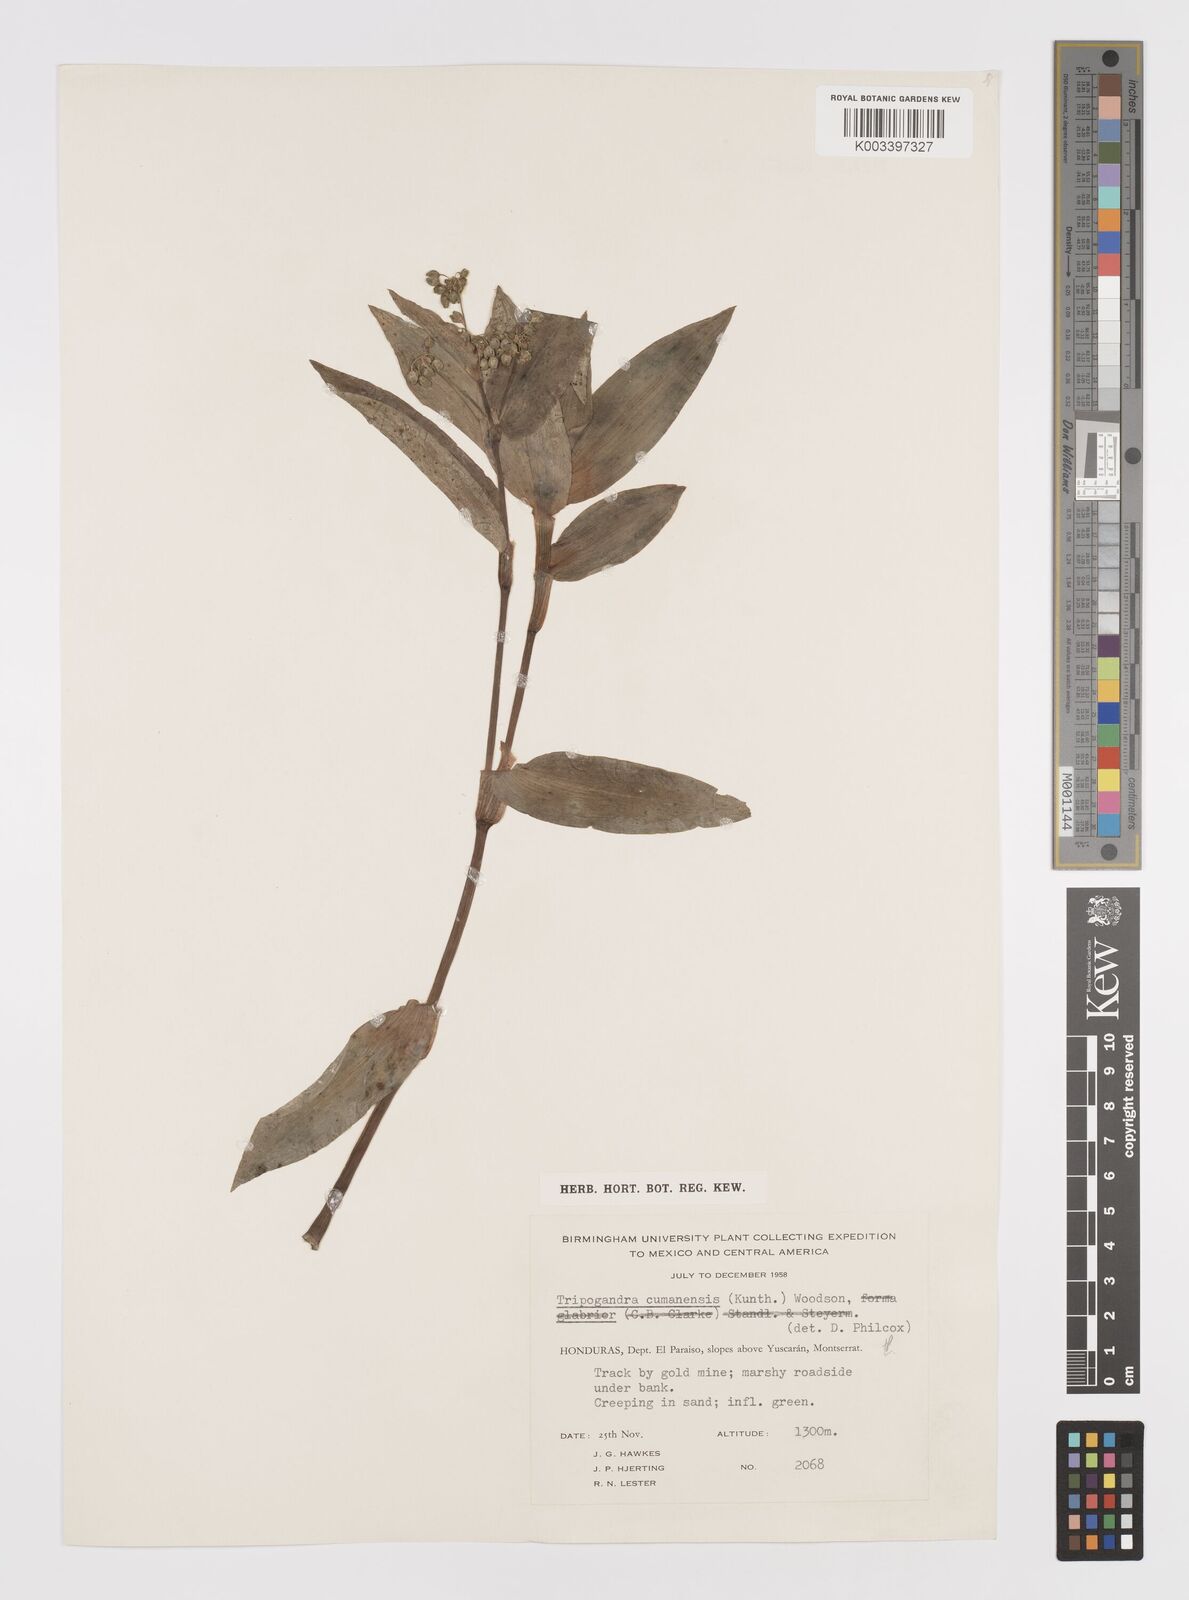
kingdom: Plantae
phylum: Tracheophyta
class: Liliopsida
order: Commelinales
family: Commelinaceae
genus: Callisia
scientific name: Callisia serrulata
